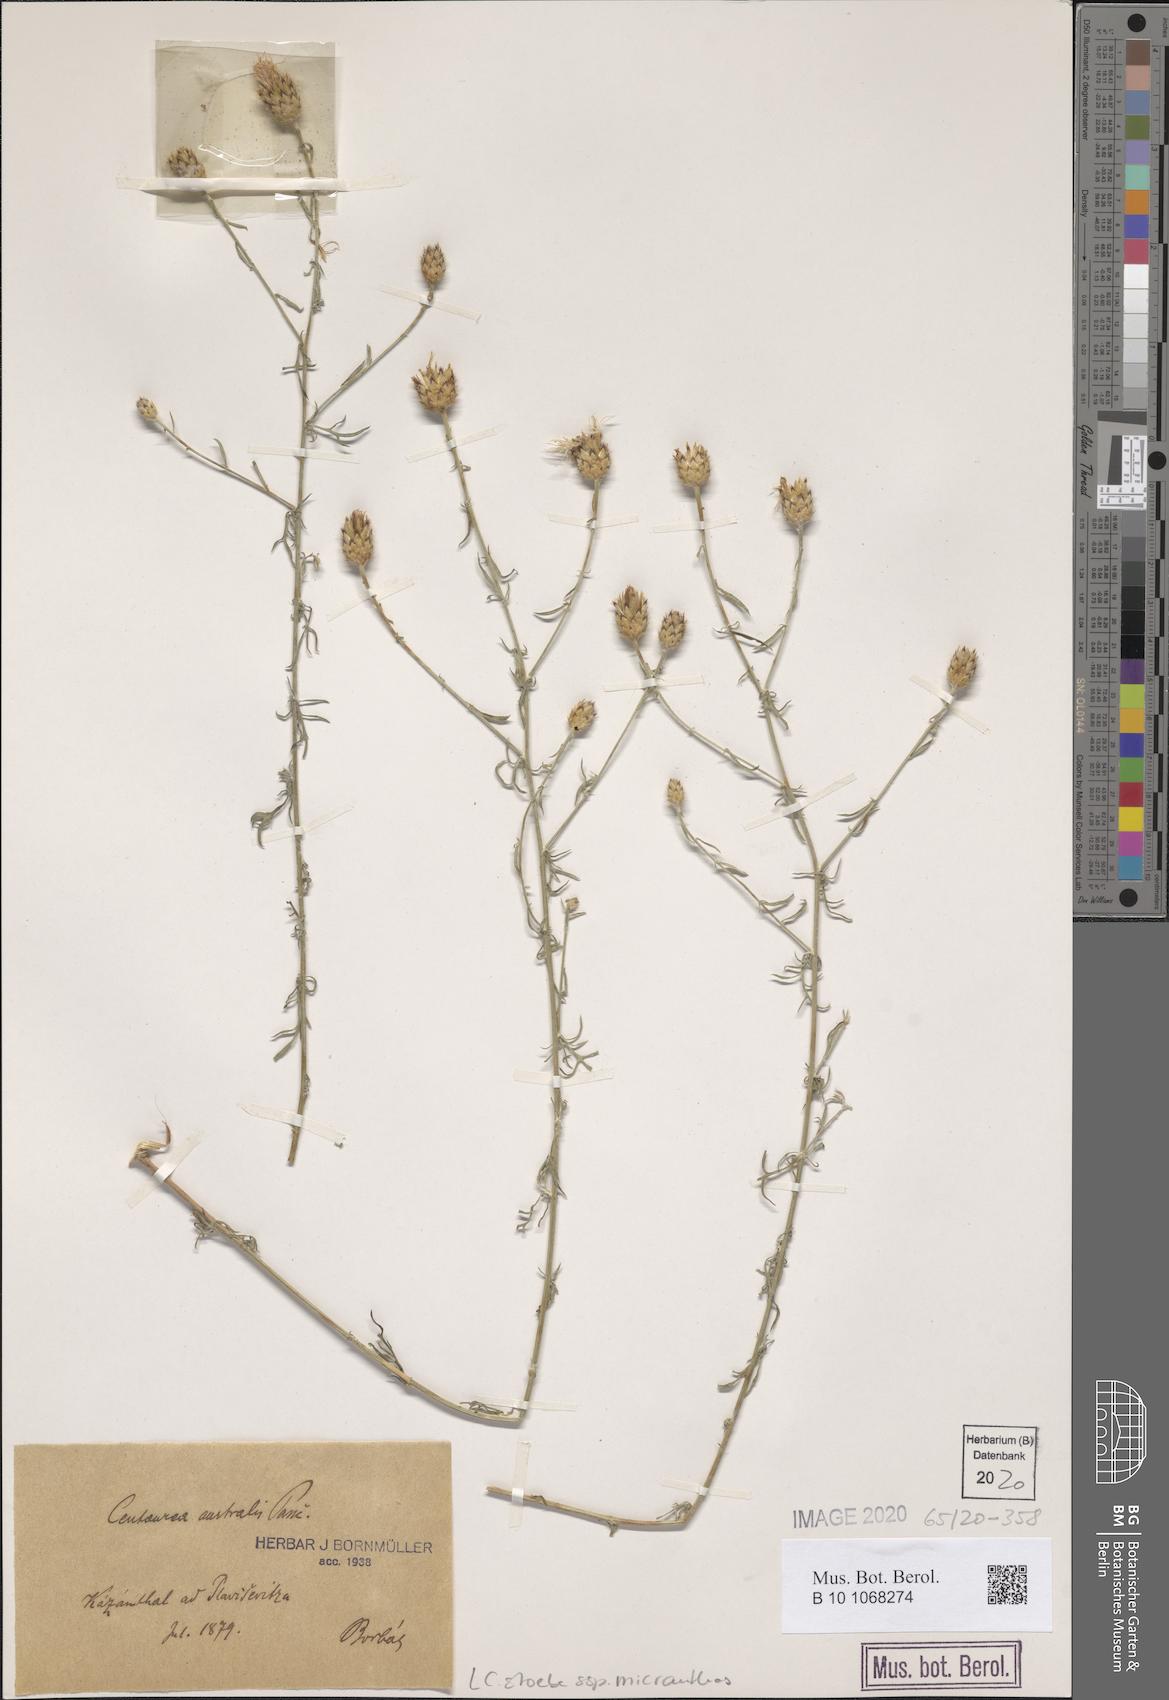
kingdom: Plantae
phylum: Tracheophyta
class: Magnoliopsida
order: Asterales
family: Asteraceae
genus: Centaurea
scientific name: Centaurea australis
